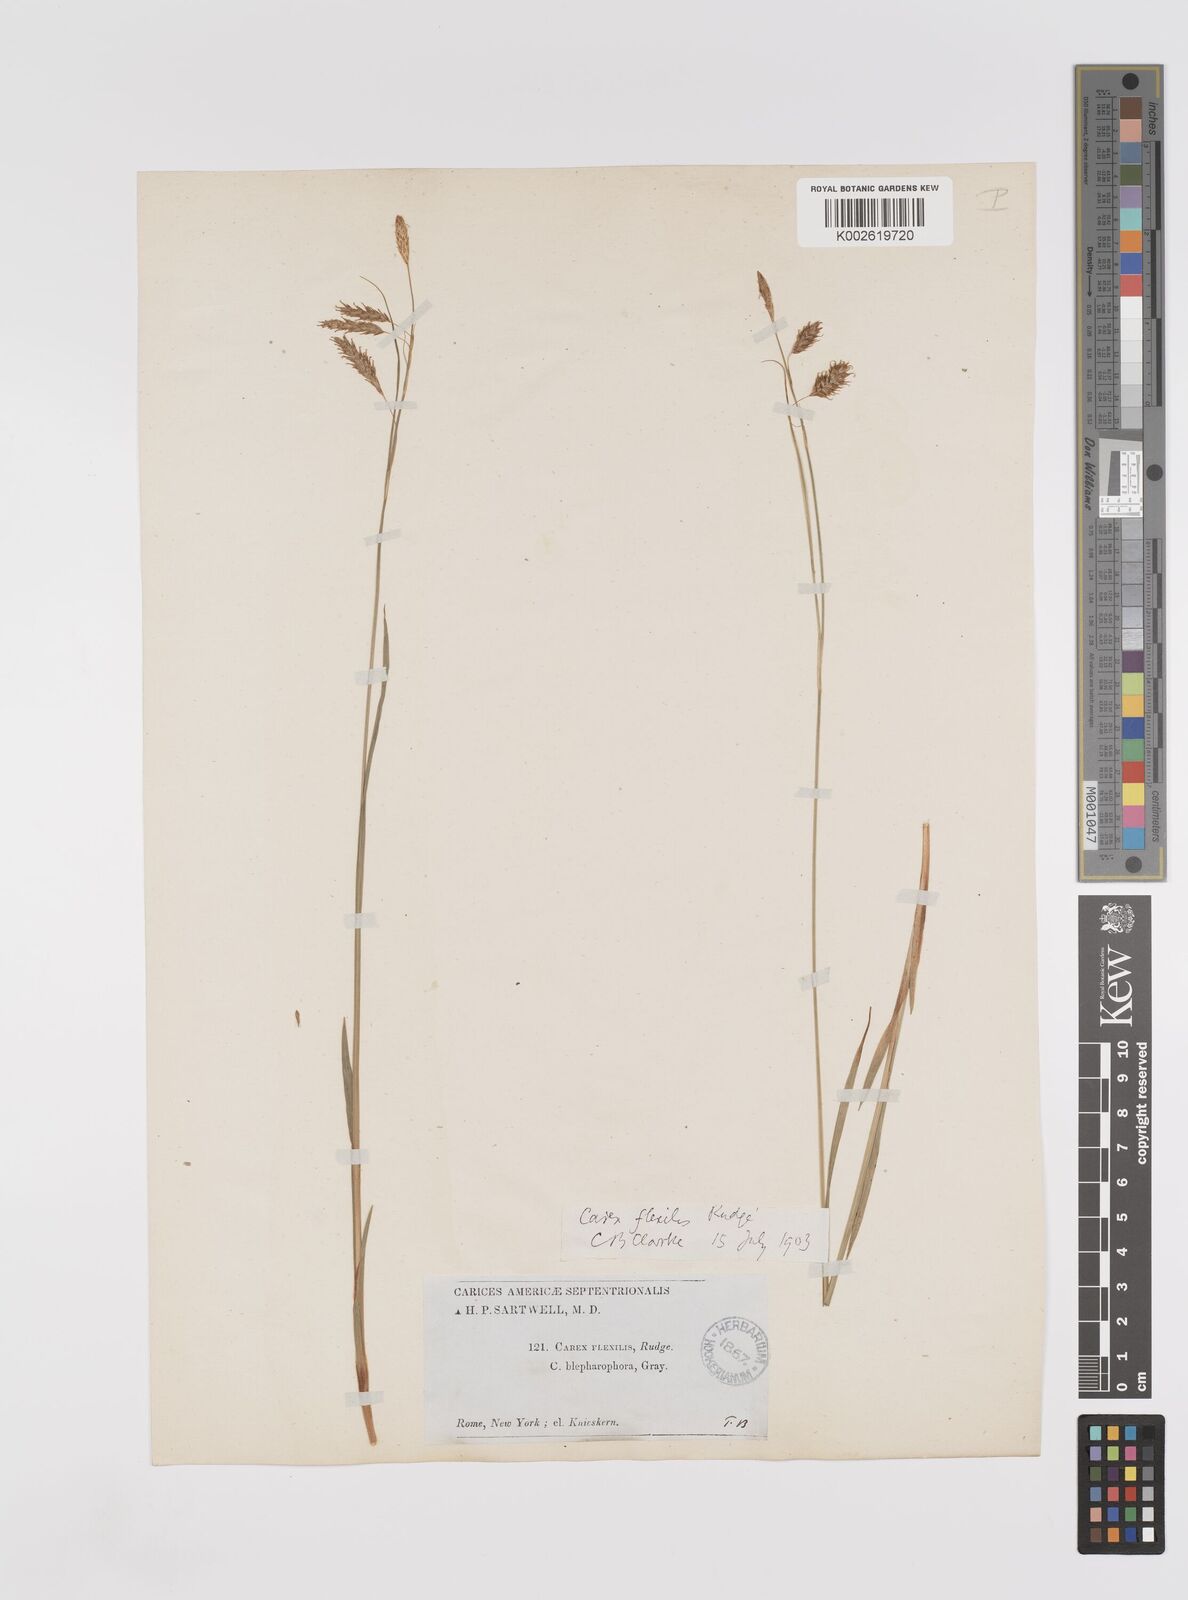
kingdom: Plantae
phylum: Tracheophyta
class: Liliopsida
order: Poales
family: Cyperaceae
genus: Carex
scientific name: Carex castanea
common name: Chestnut sedge
